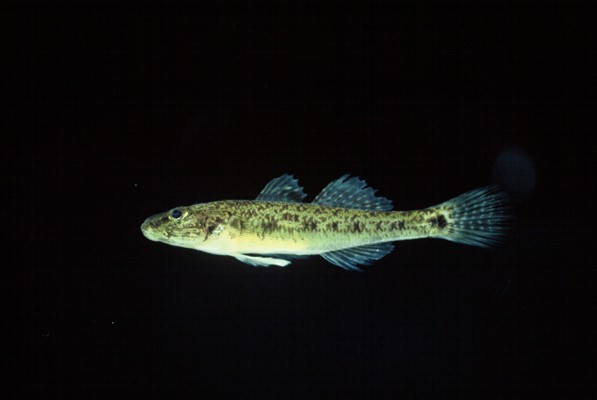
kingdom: Animalia
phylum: Chordata
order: Perciformes
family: Gobiidae
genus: Glossogobius
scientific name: Glossogobius callidus
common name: River goby
